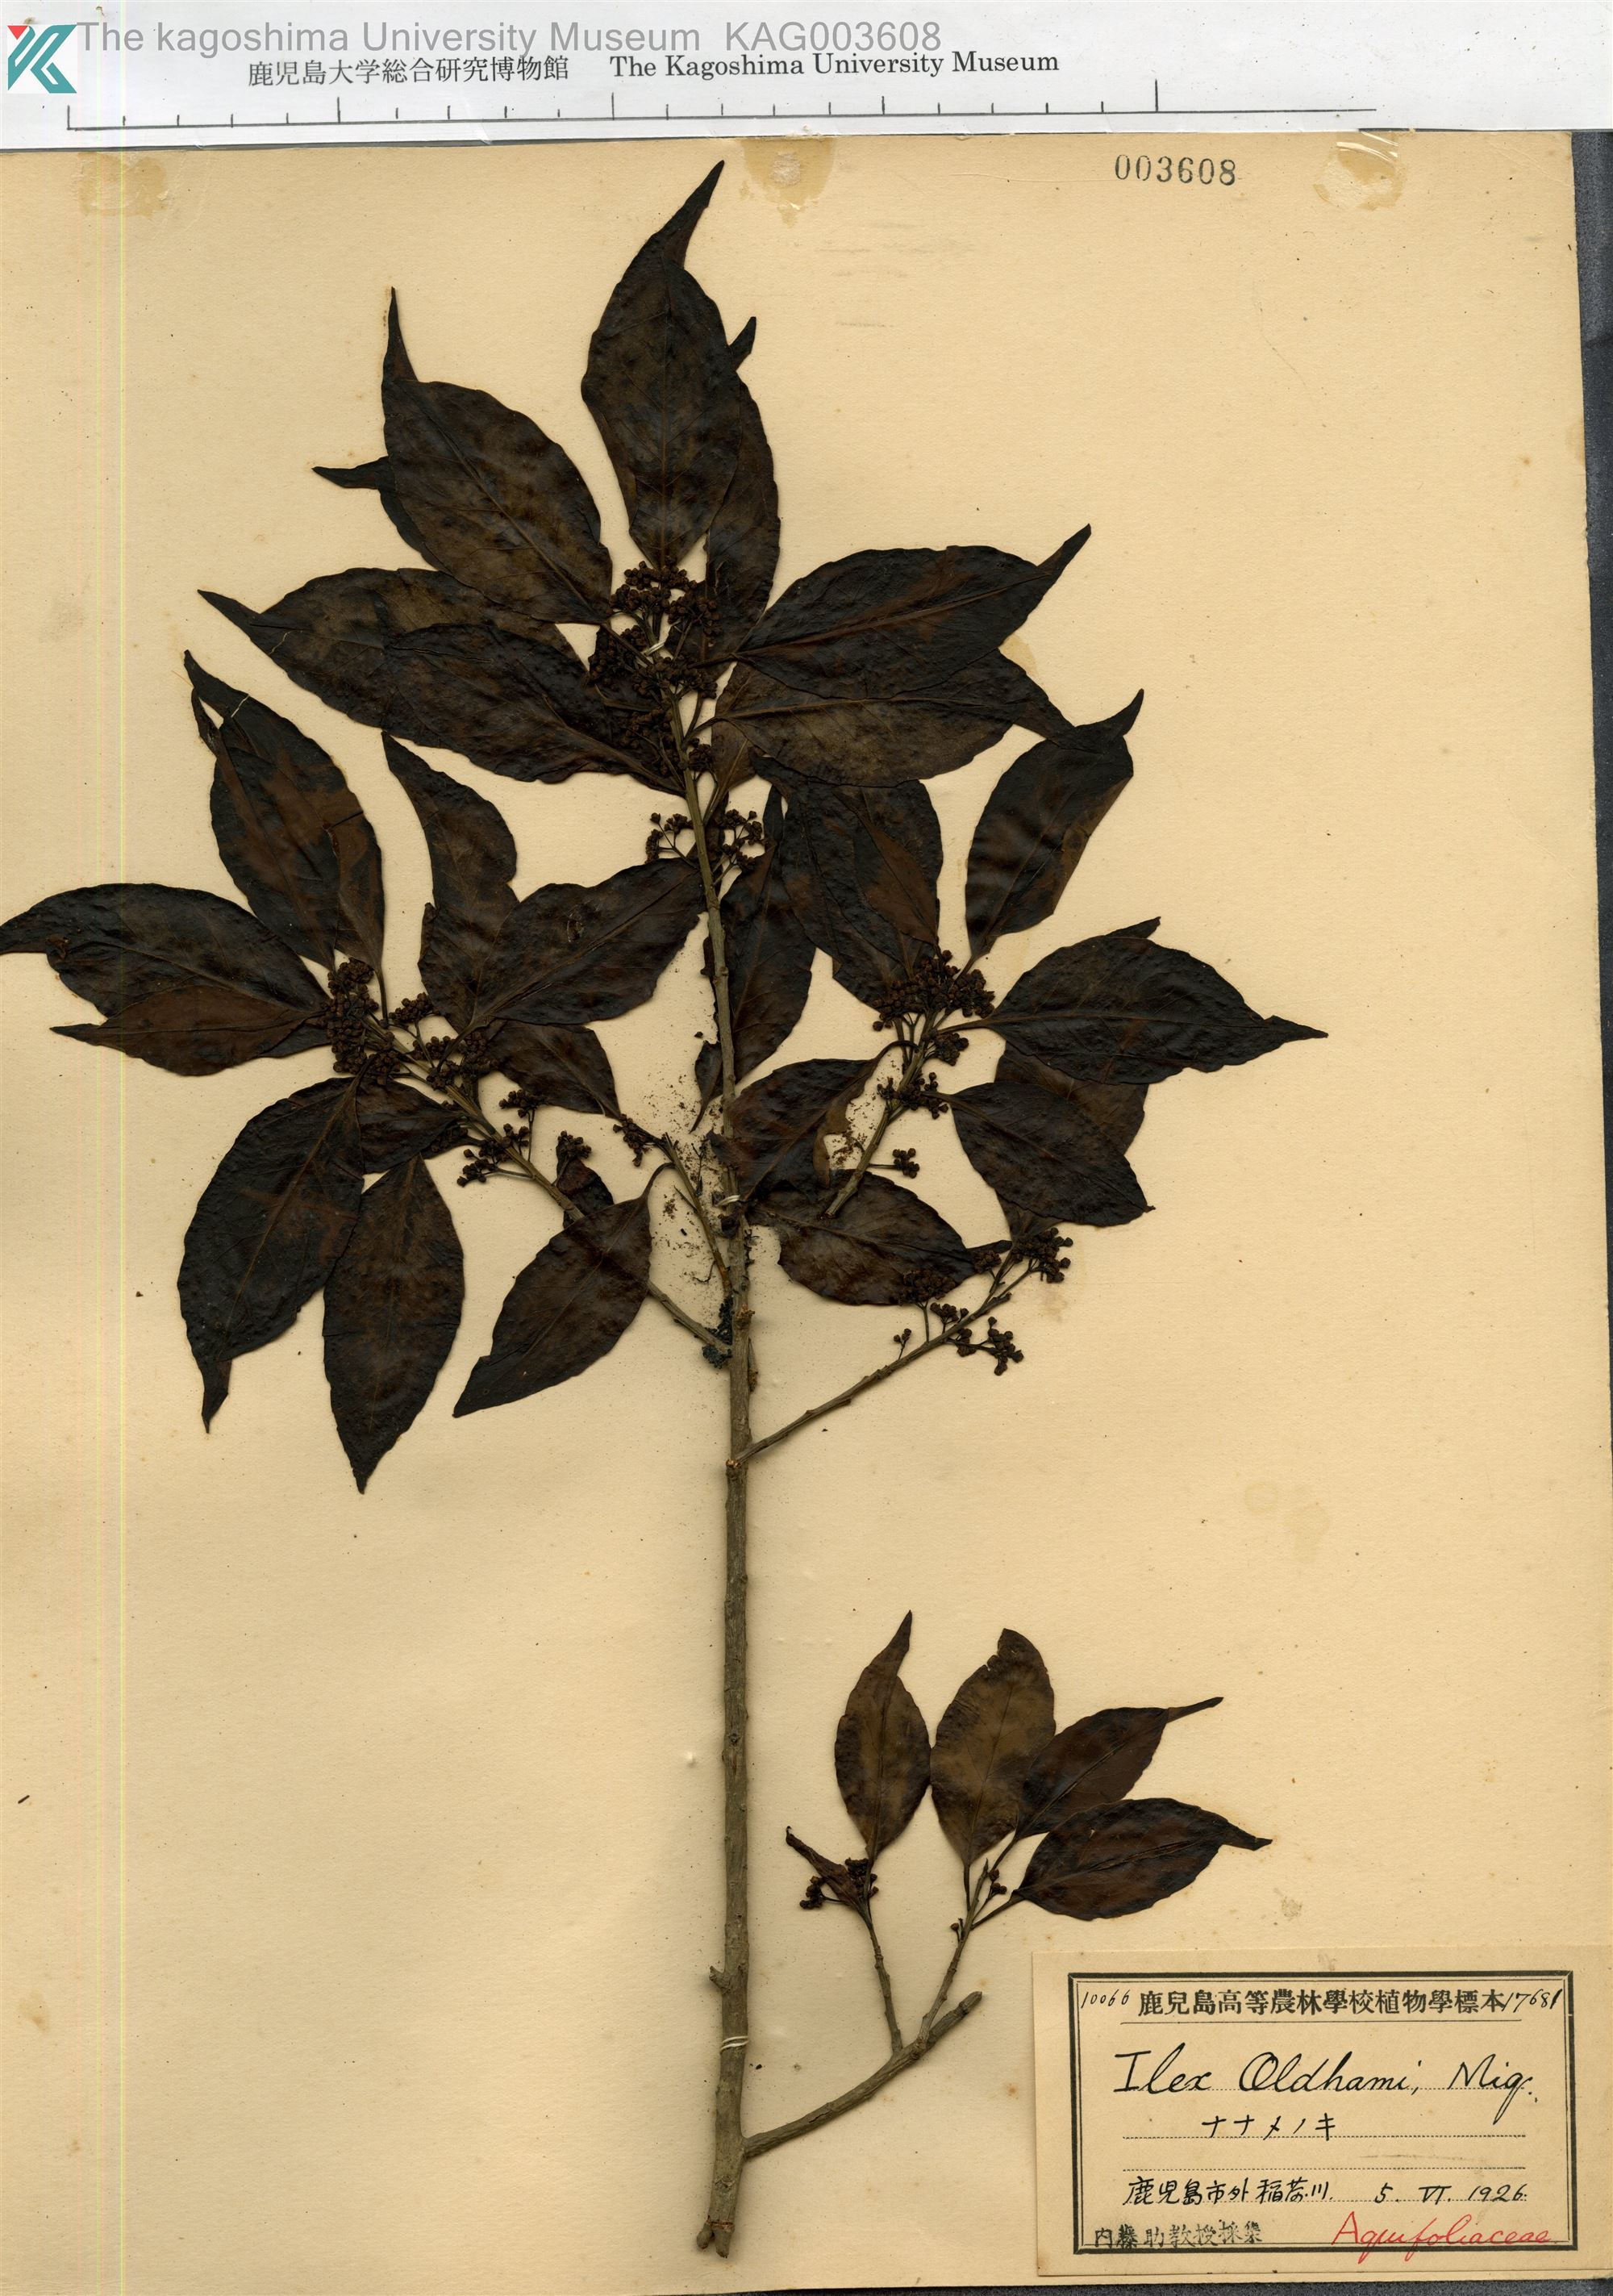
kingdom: Plantae
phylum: Tracheophyta
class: Magnoliopsida
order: Aquifoliales
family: Aquifoliaceae
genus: Ilex
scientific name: Ilex chinensis
